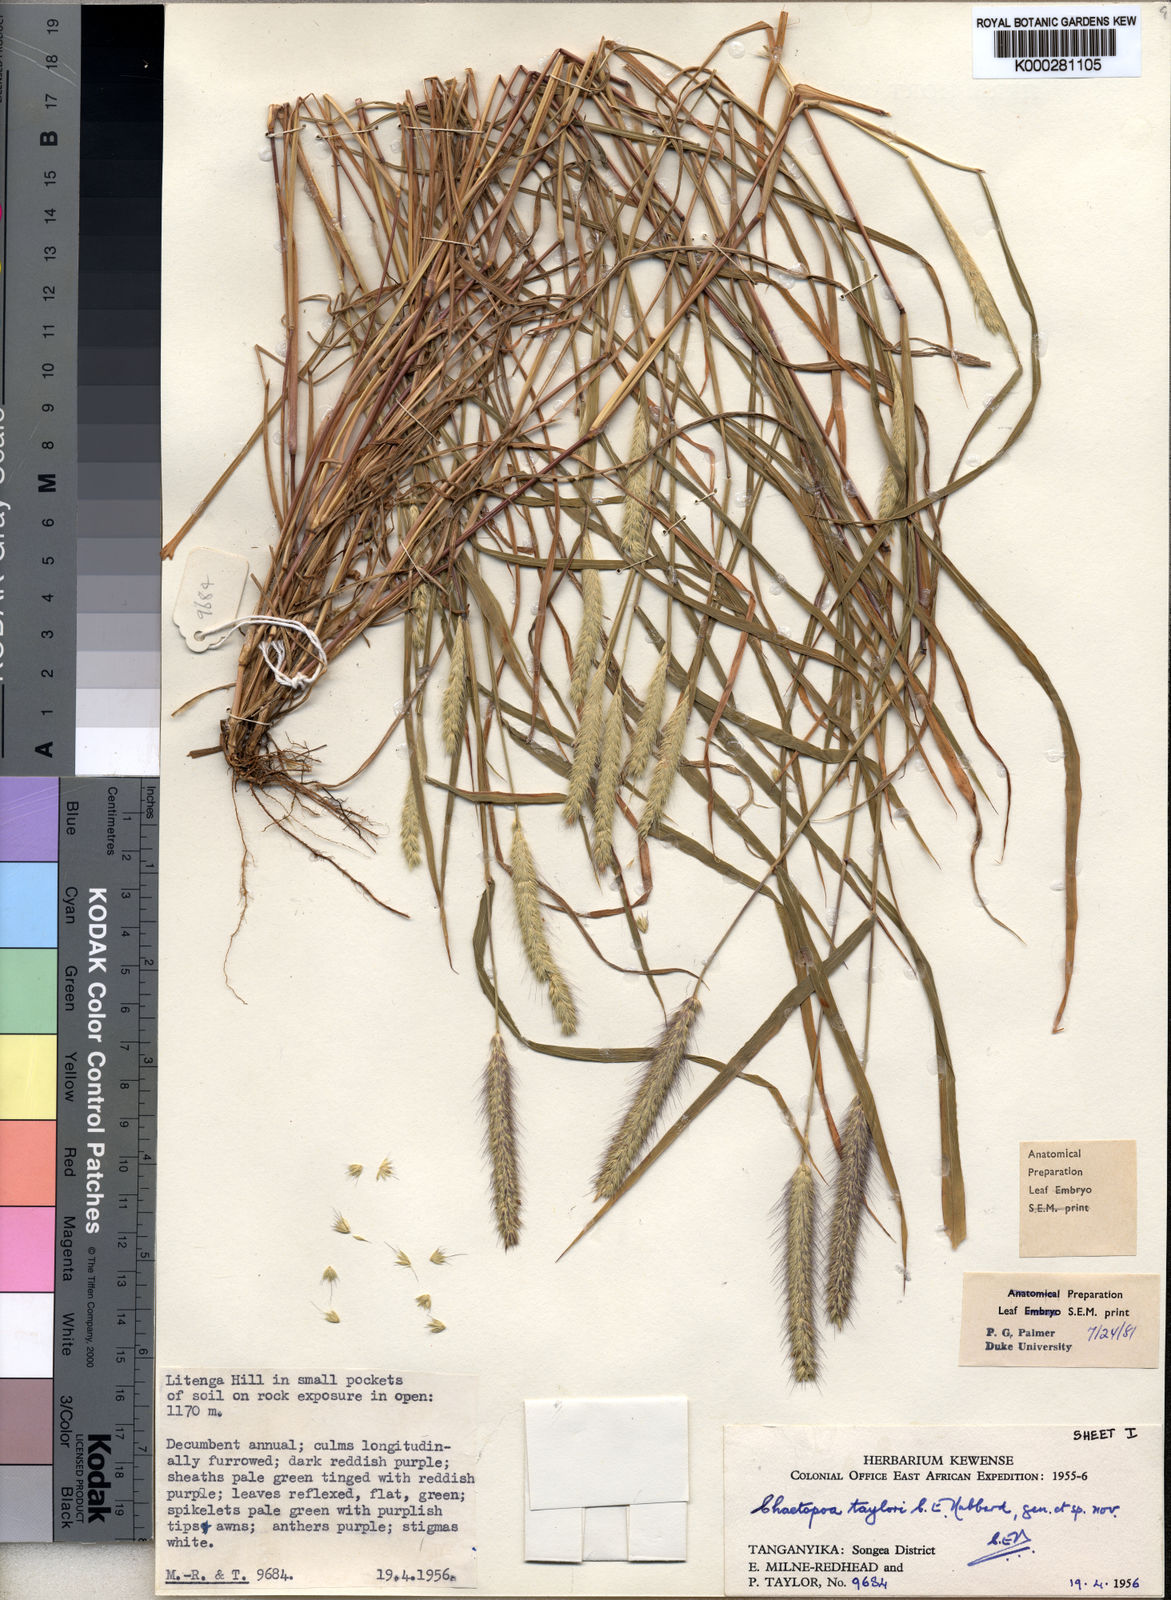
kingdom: Plantae
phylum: Tracheophyta
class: Liliopsida
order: Poales
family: Poaceae
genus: Chaetopoa
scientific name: Chaetopoa taylorii
